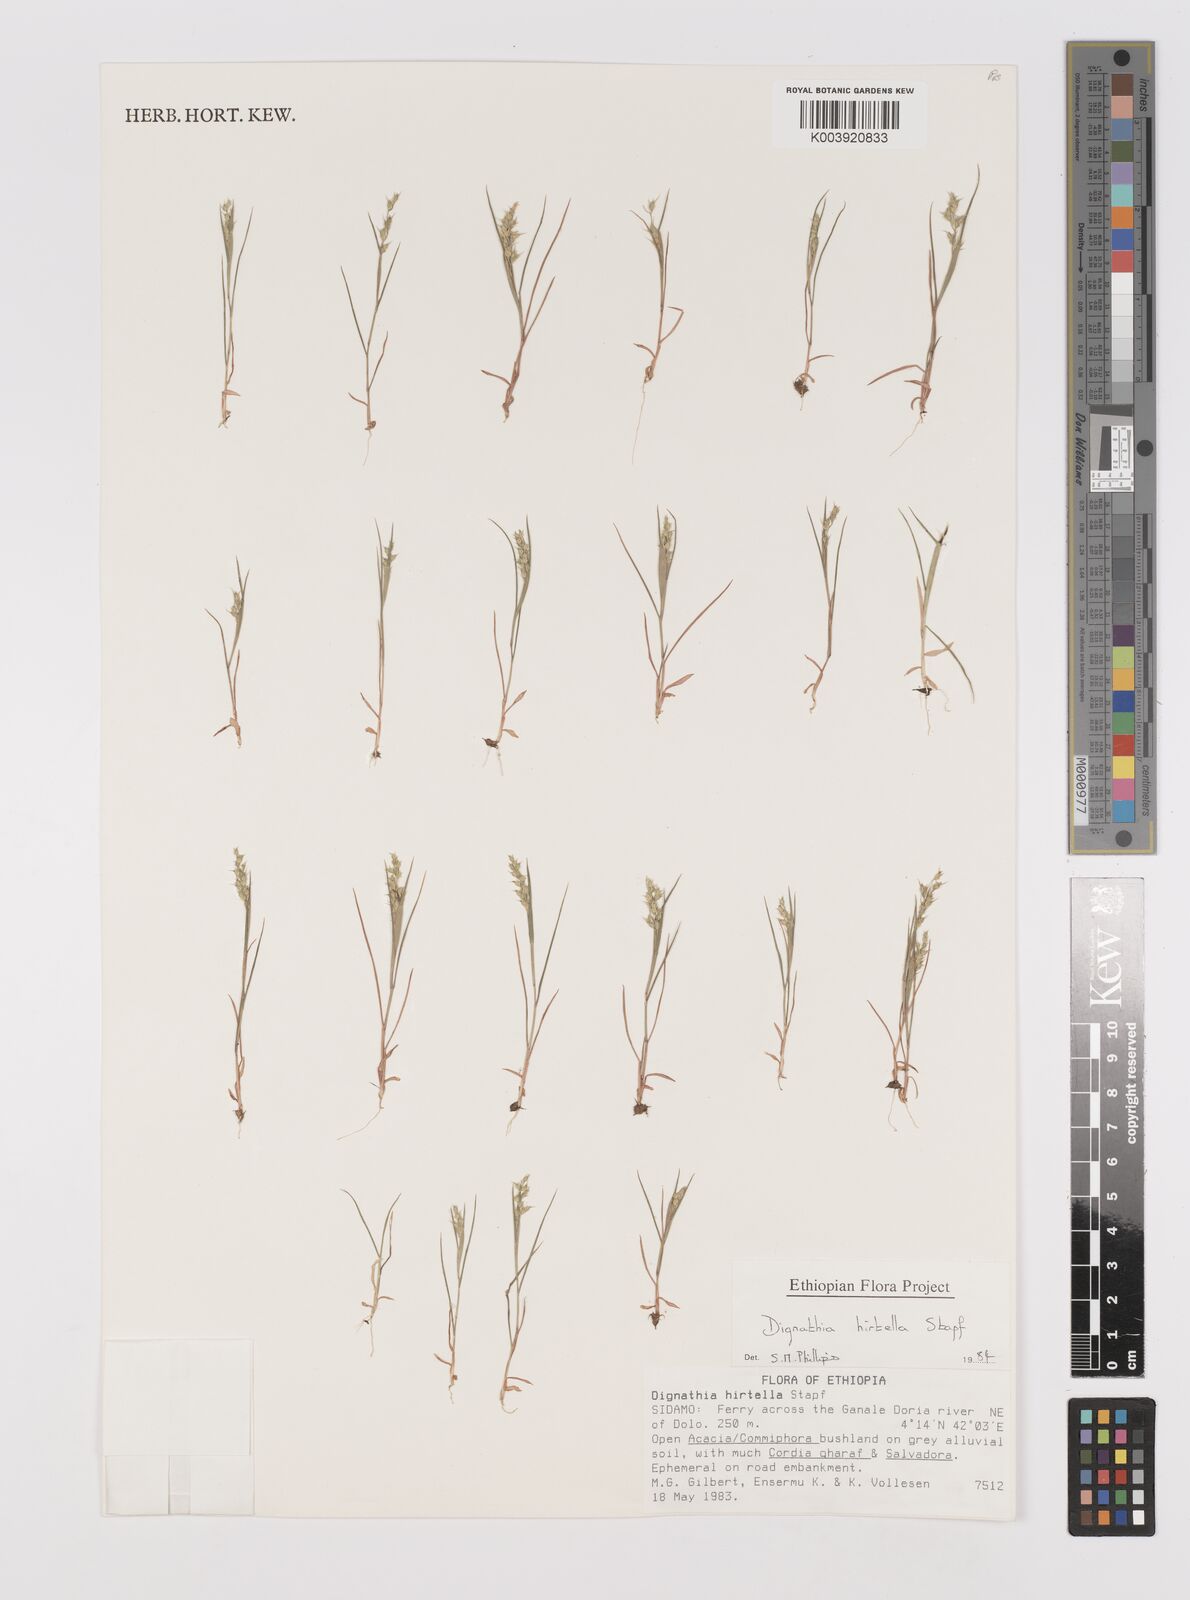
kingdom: Plantae
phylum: Tracheophyta
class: Liliopsida
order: Poales
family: Poaceae
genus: Dignathia
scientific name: Dignathia hirtella
